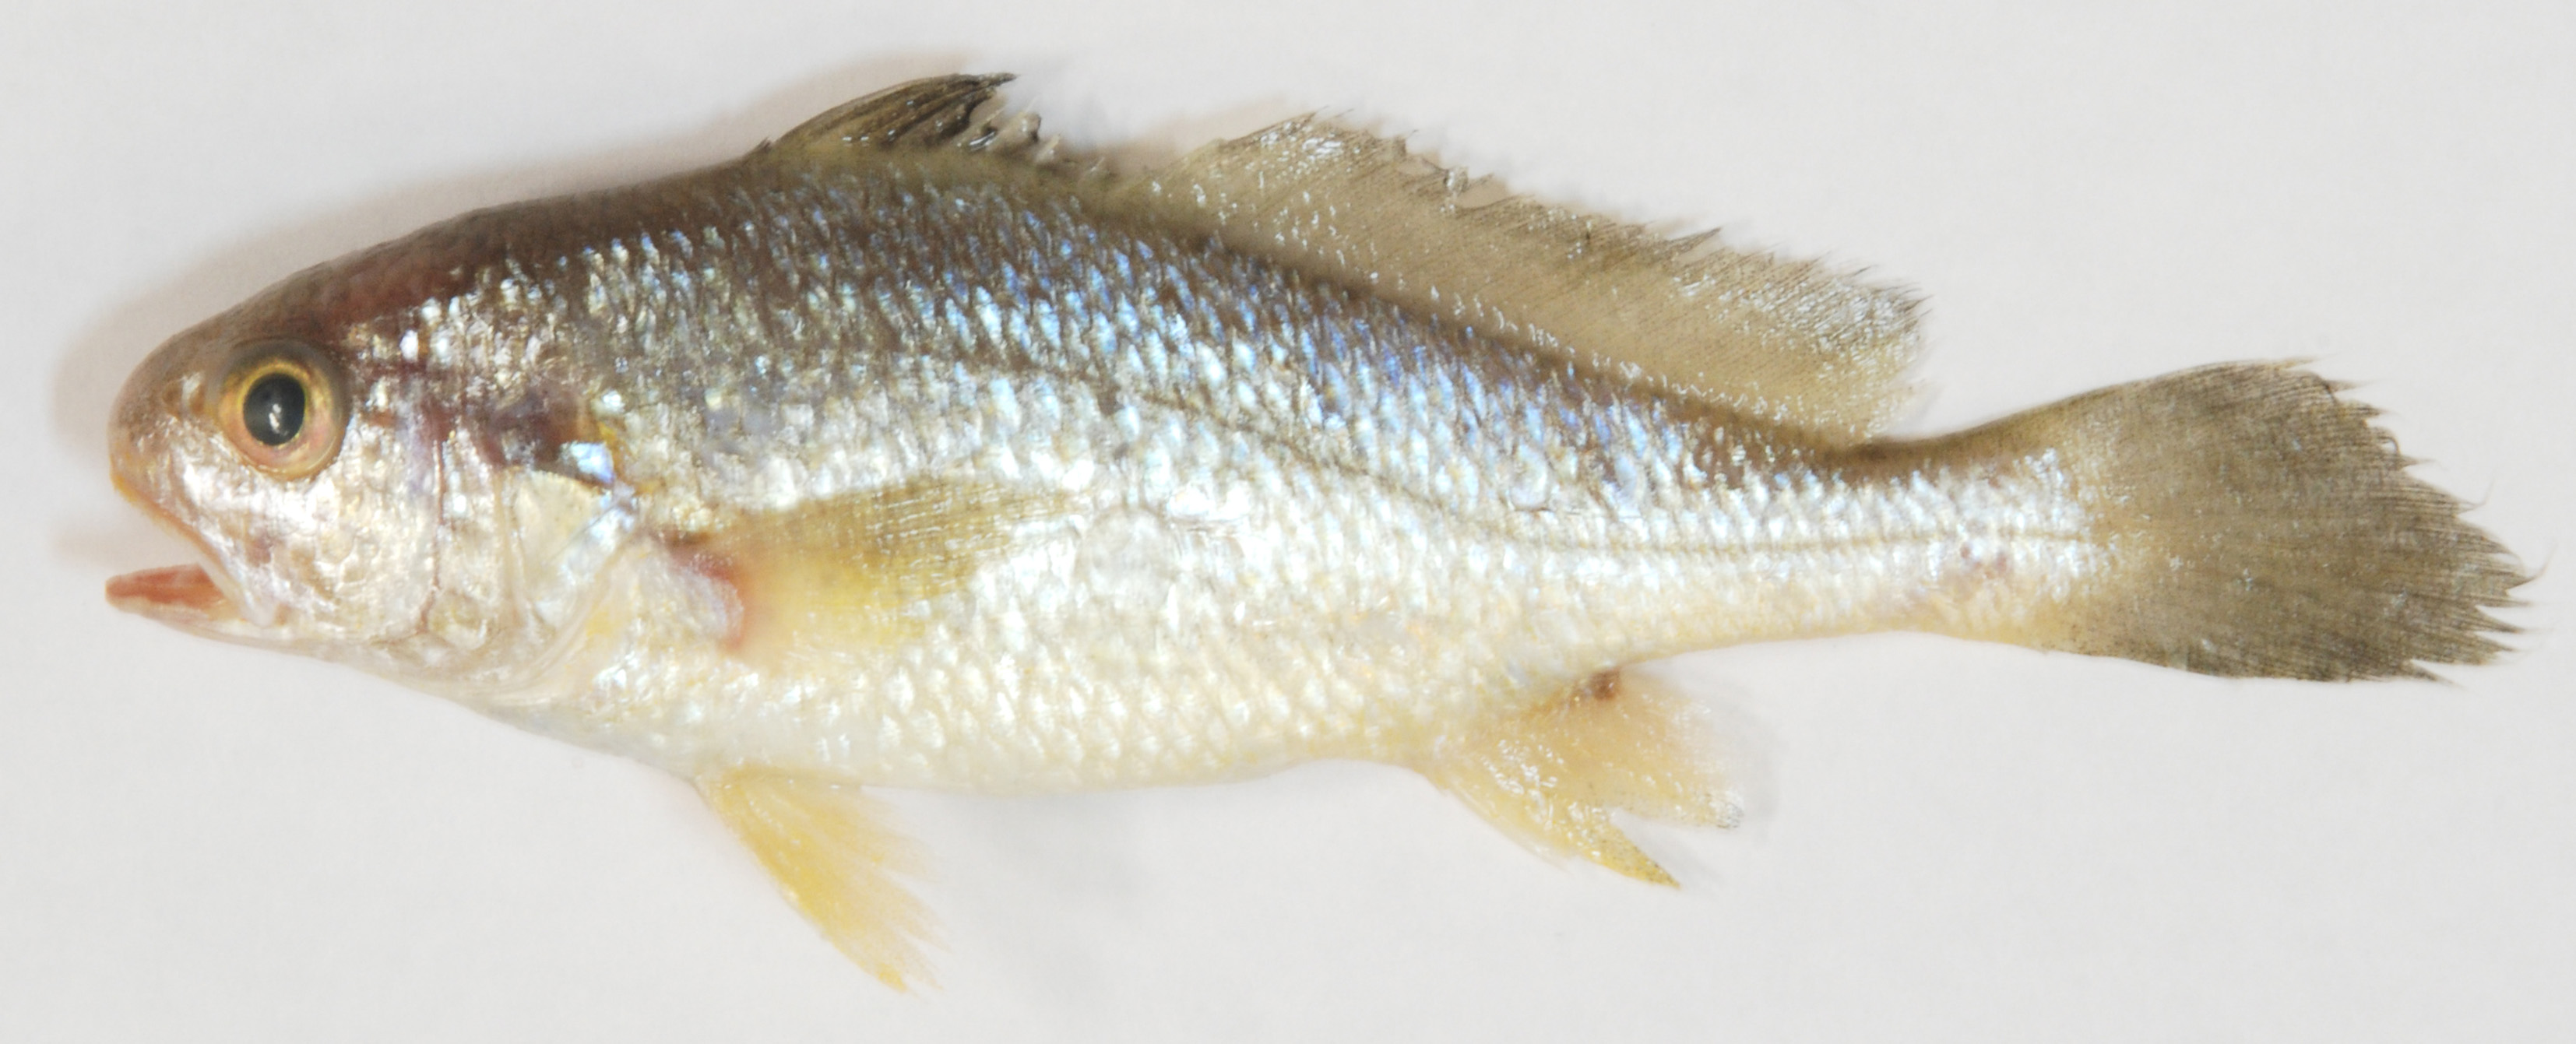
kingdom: Animalia
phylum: Chordata
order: Perciformes
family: Sciaenidae
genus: Johnius
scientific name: Johnius dorsalis
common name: Sharp-tooth jewfish
